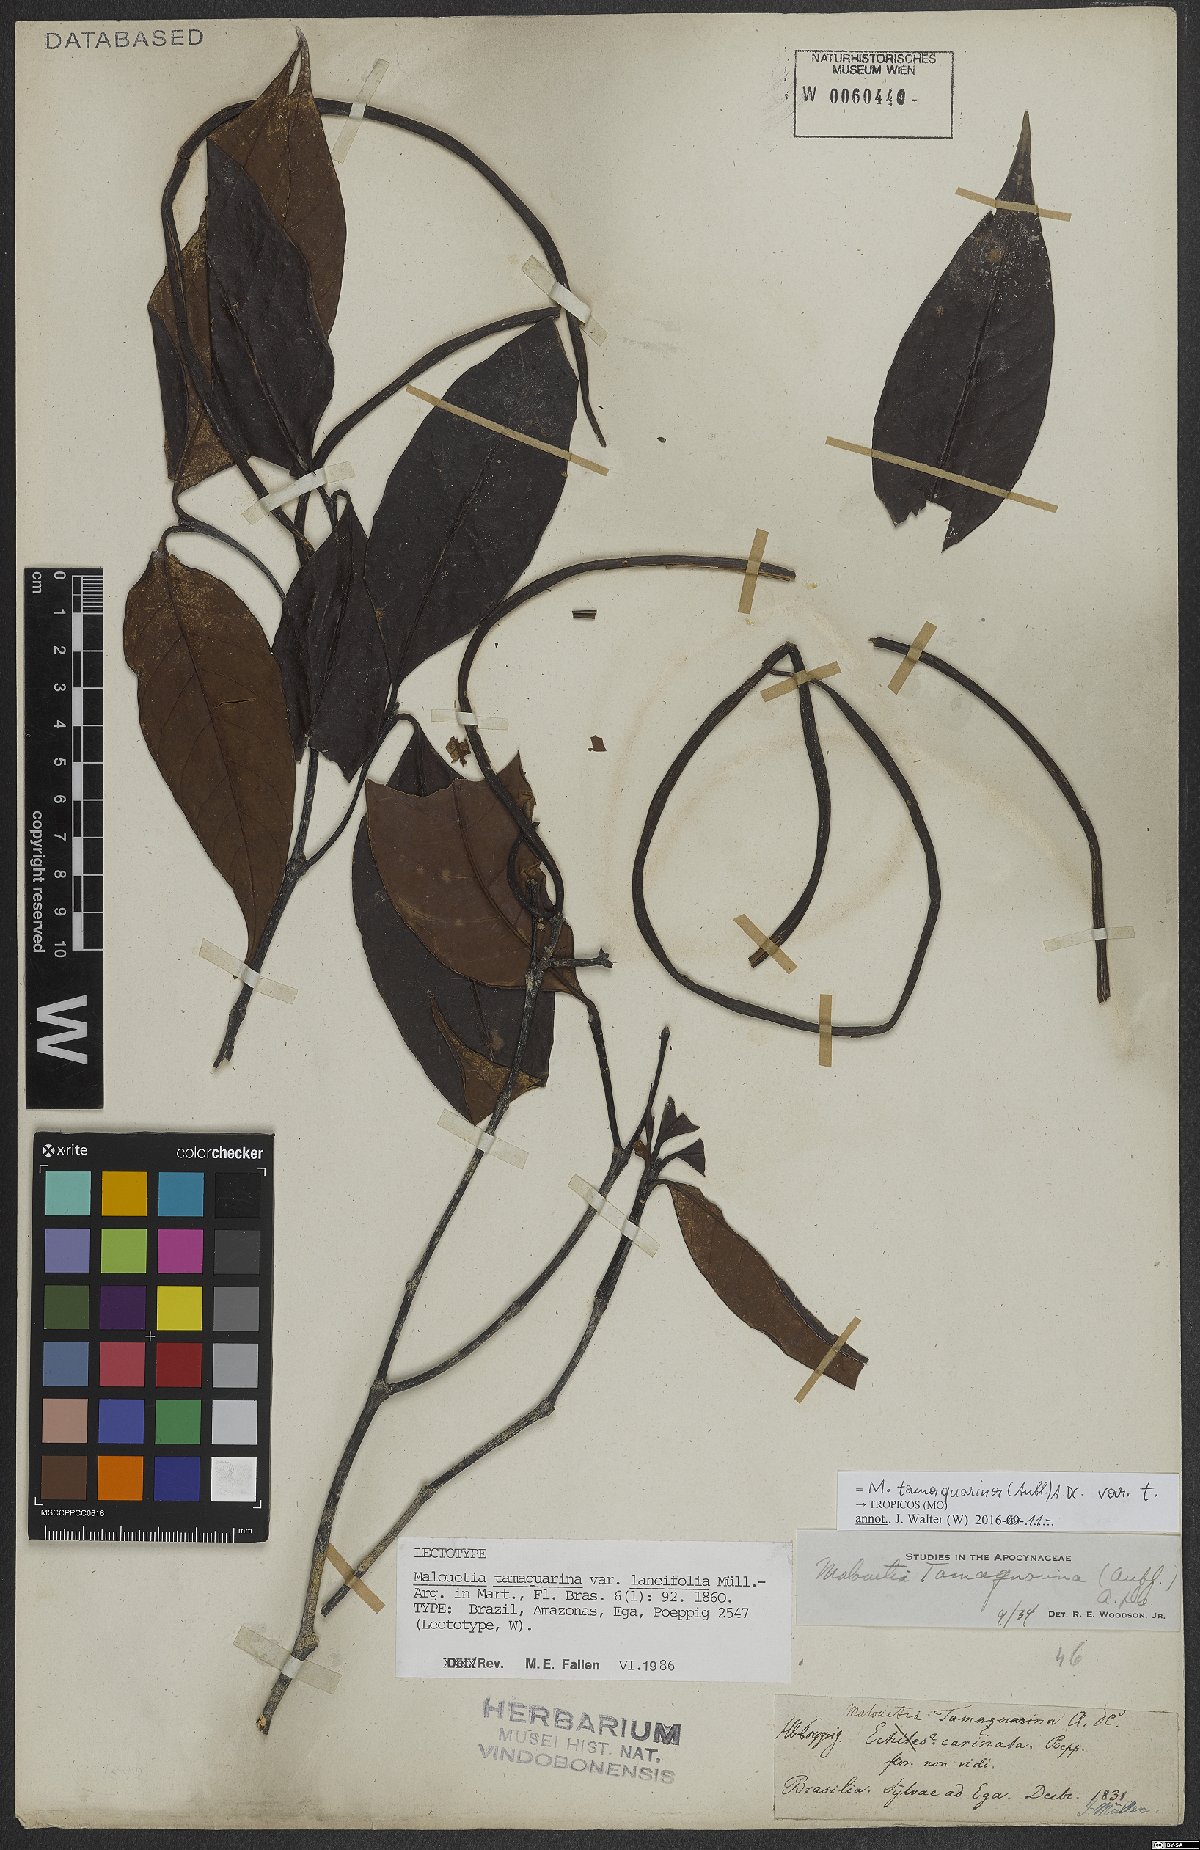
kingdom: Plantae
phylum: Tracheophyta
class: Magnoliopsida
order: Gentianales
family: Apocynaceae
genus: Malouetia
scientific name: Malouetia tamaquarina
